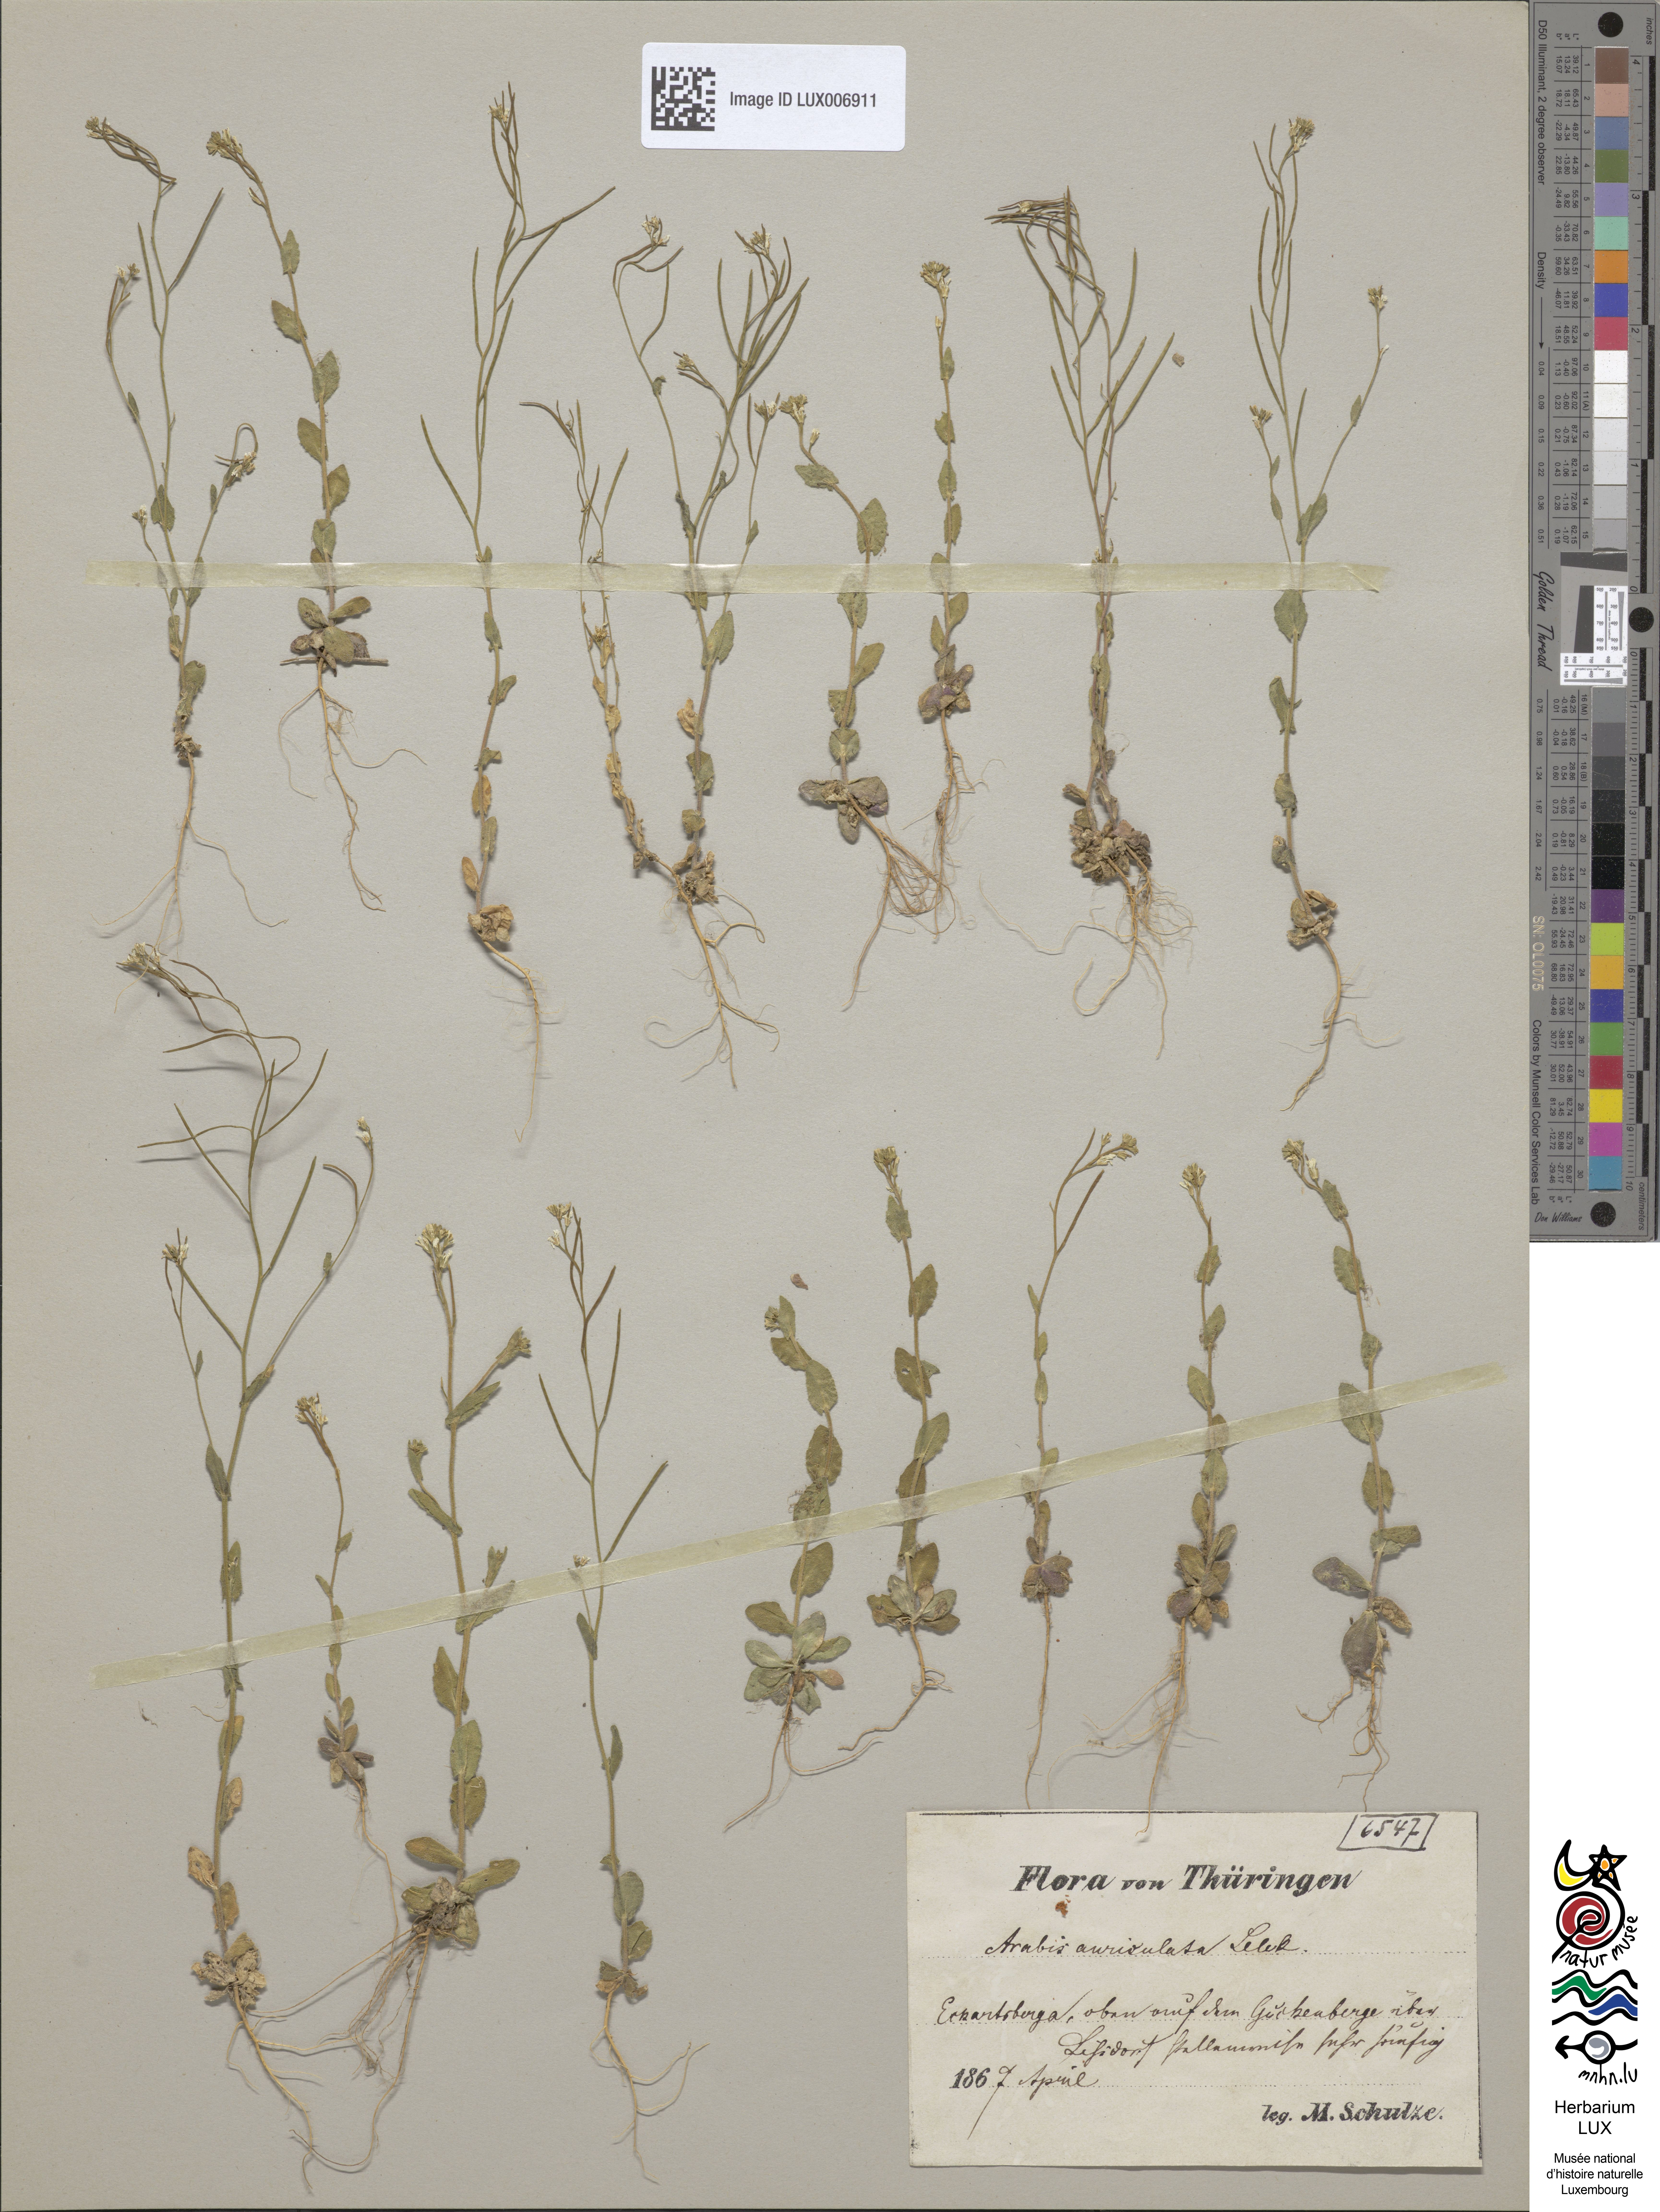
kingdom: Plantae
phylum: Tracheophyta
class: Magnoliopsida
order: Brassicales
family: Brassicaceae
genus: Arabis
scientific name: Arabis auriculata
